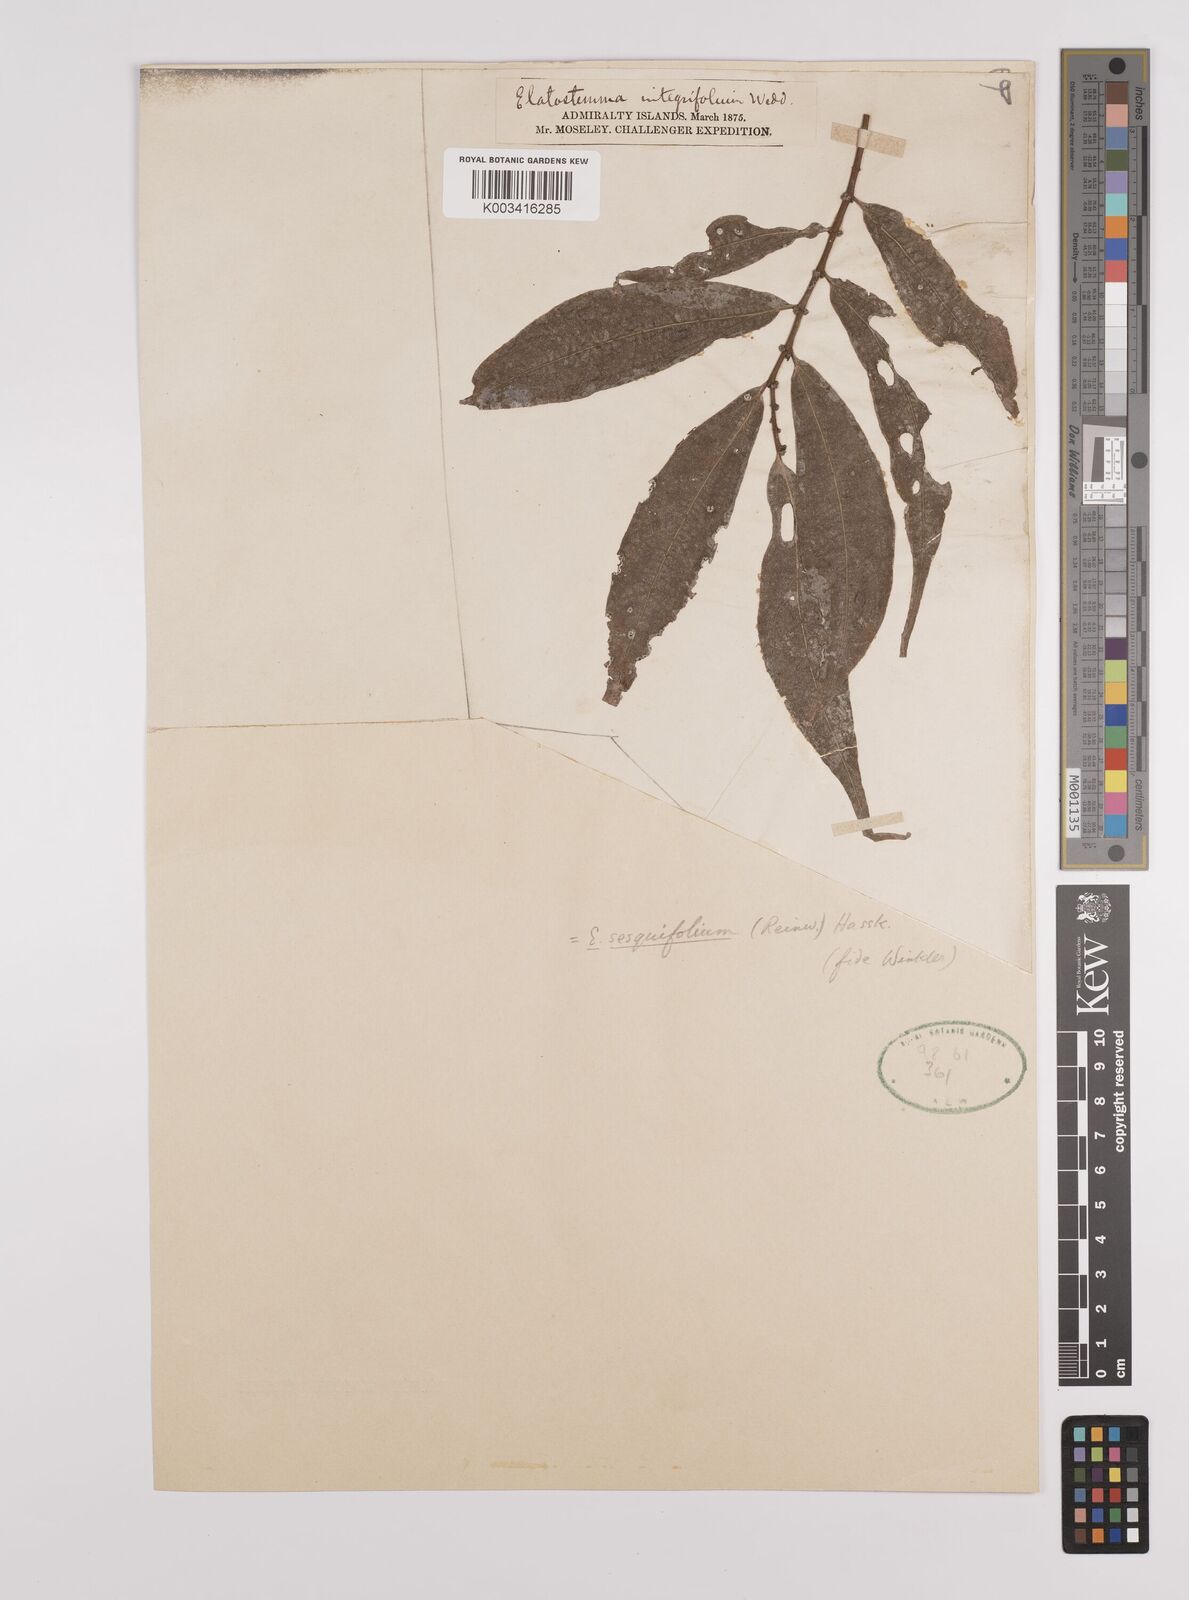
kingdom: Plantae
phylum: Tracheophyta
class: Magnoliopsida
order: Rosales
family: Urticaceae
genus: Elatostema
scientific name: Elatostema integrifolium
